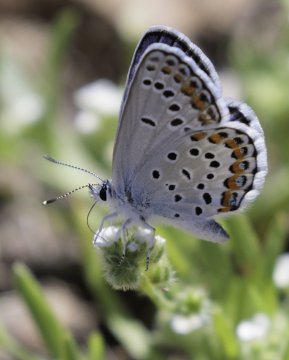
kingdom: Animalia
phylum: Arthropoda
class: Insecta
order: Lepidoptera
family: Lycaenidae
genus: Lycaeides
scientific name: Lycaeides melissa
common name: Melissa Blue
